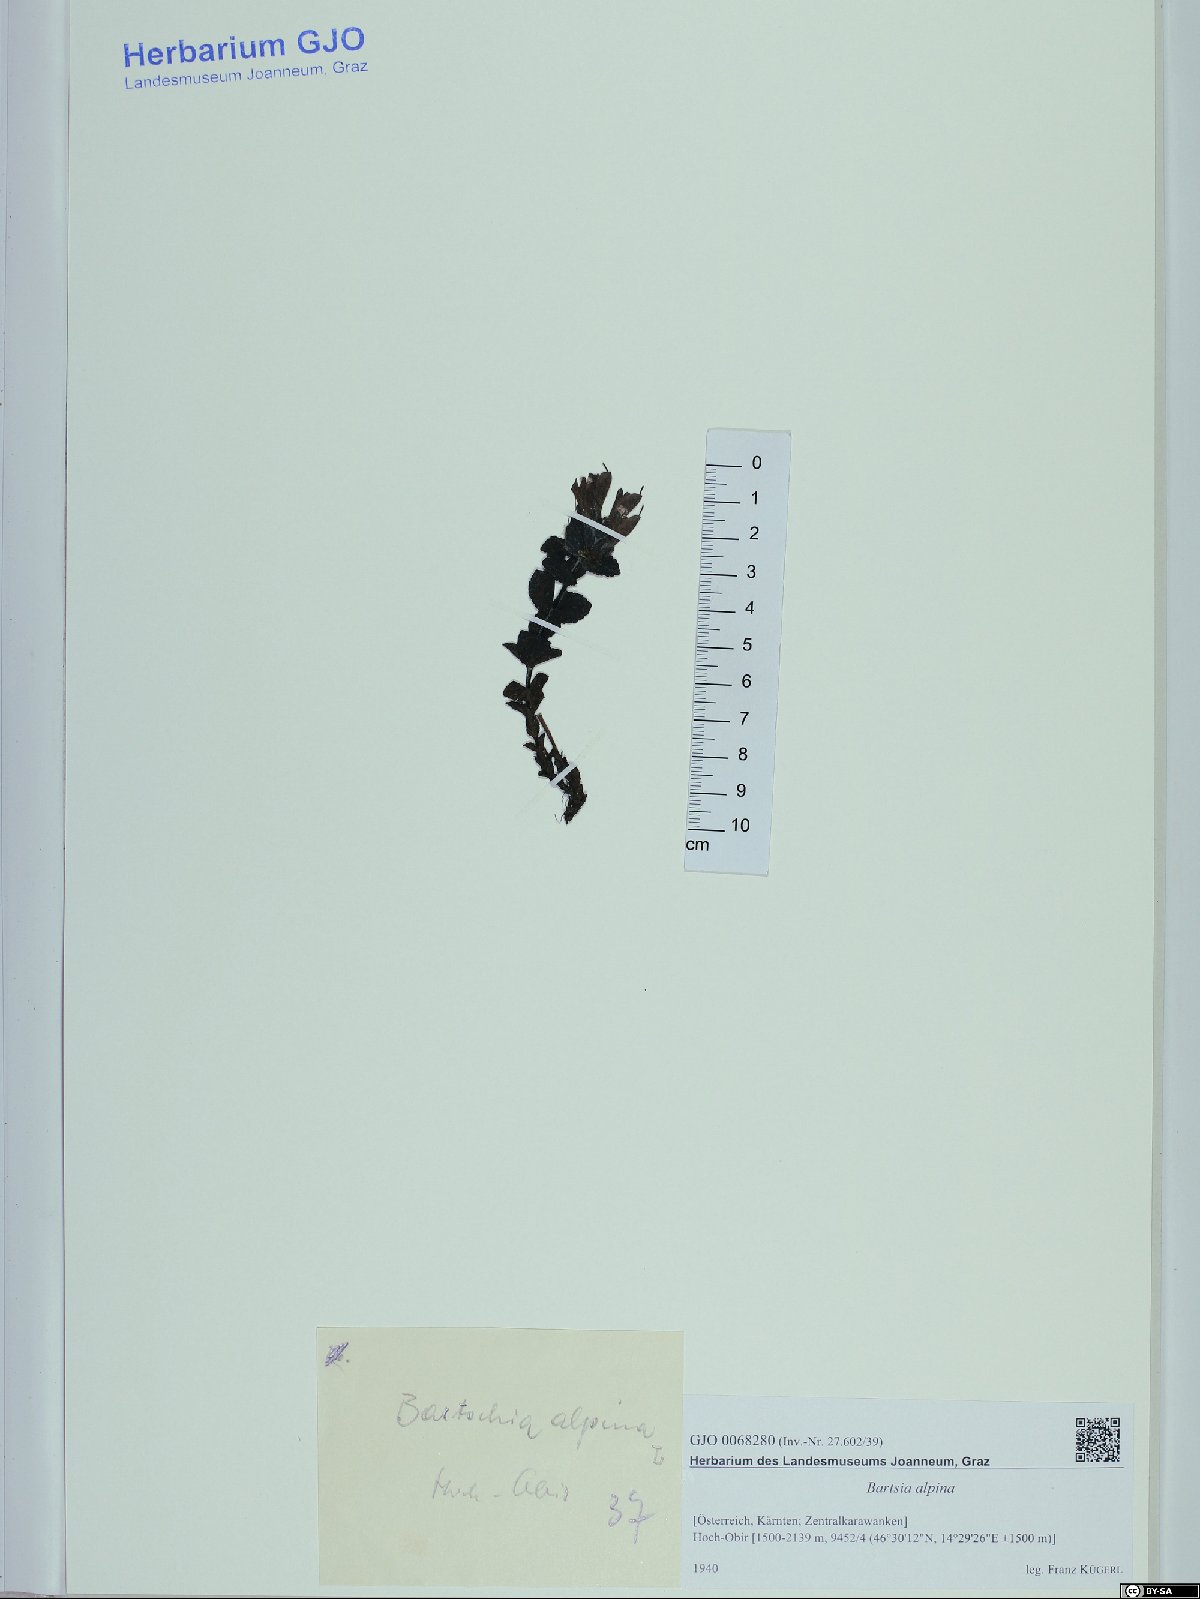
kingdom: Plantae
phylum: Tracheophyta
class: Magnoliopsida
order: Lamiales
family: Orobanchaceae
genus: Bartsia
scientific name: Bartsia alpina
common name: Alpine bartsia
